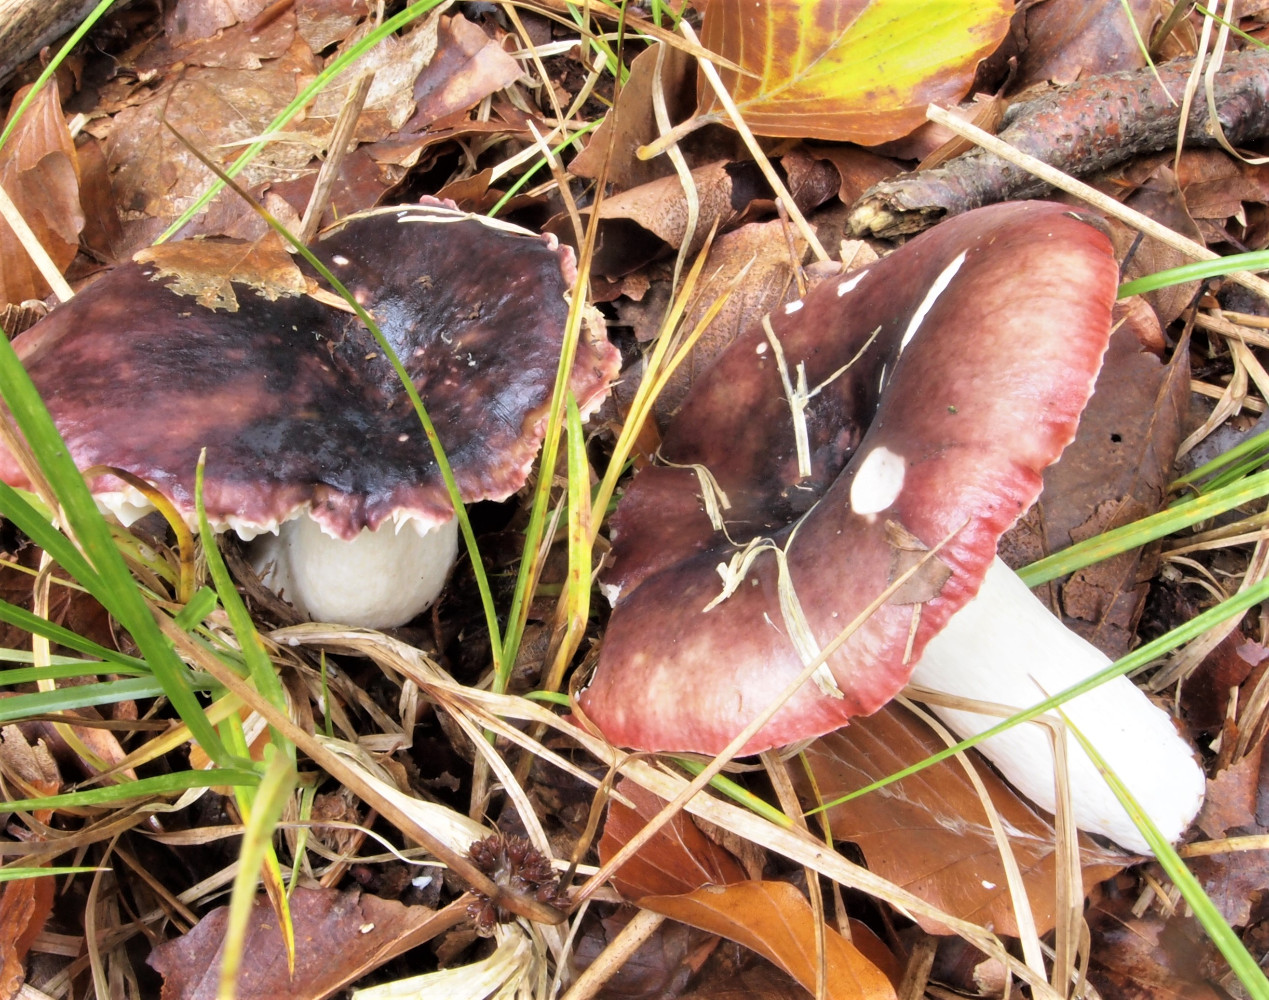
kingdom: Fungi
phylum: Basidiomycota
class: Agaricomycetes
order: Russulales
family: Russulaceae
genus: Russula
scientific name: Russula atropurpurea
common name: purpurbroget skørhat
